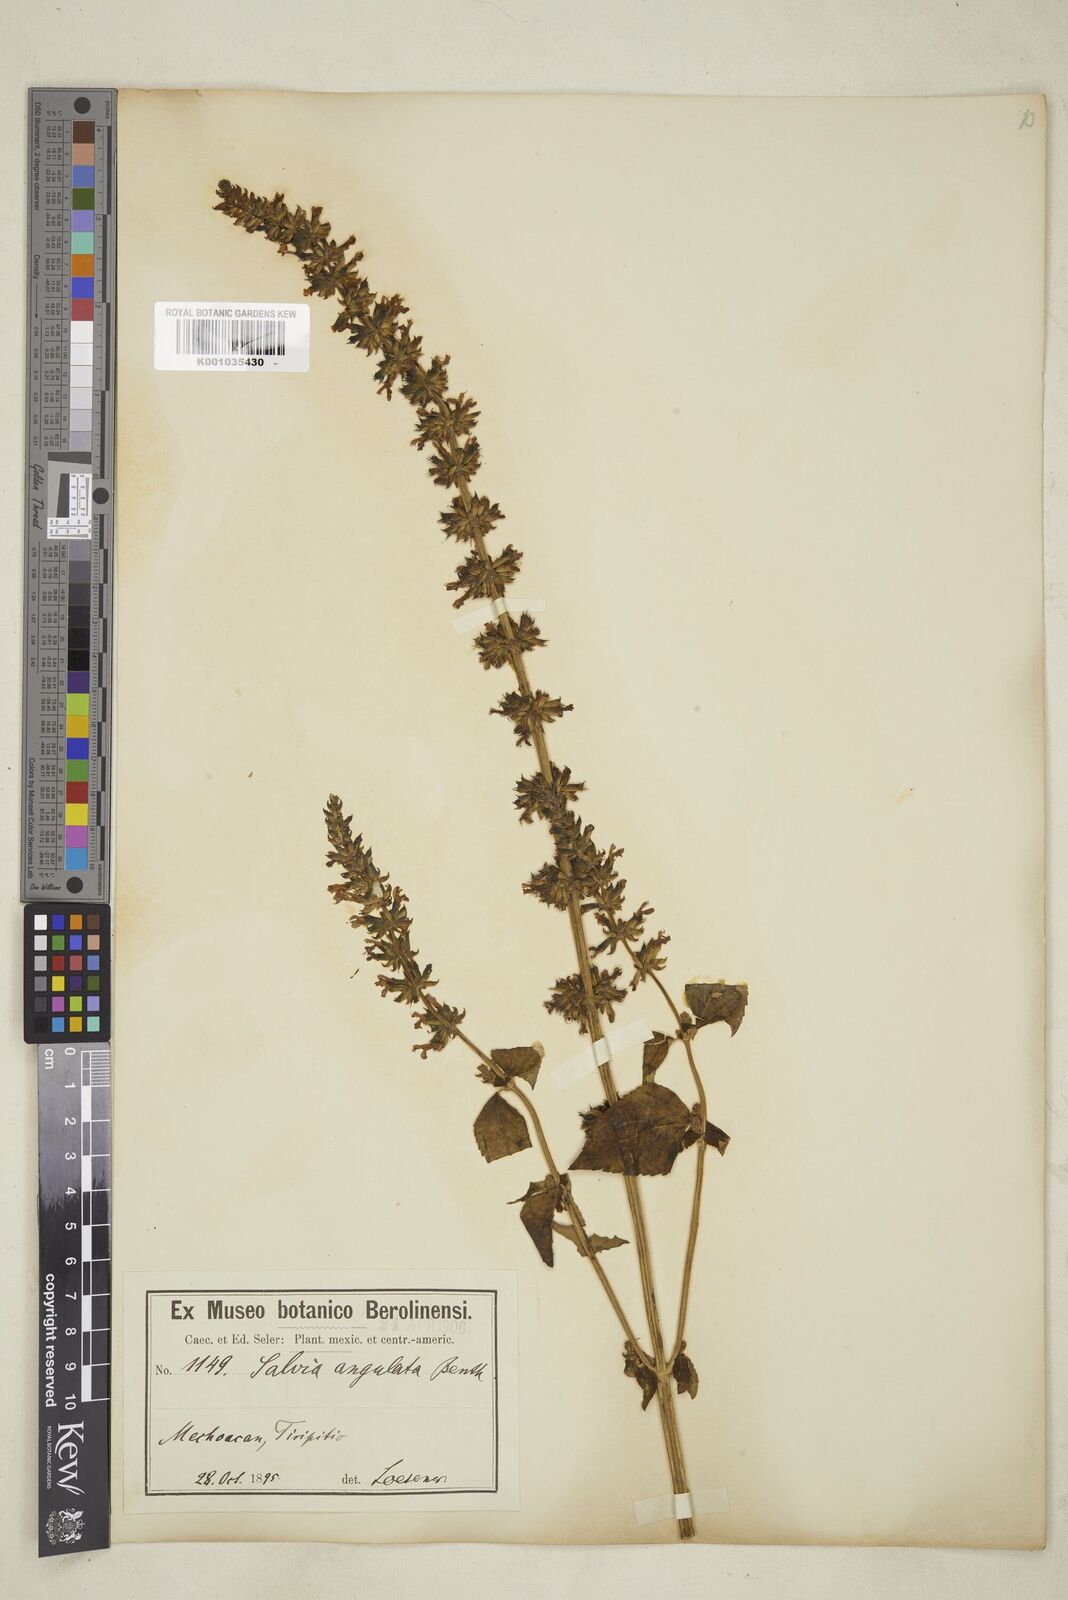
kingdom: Plantae
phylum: Tracheophyta
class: Magnoliopsida
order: Malpighiales
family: Chrysobalanaceae
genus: Parinari
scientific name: Parinari excelsa
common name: Guinea-plum
